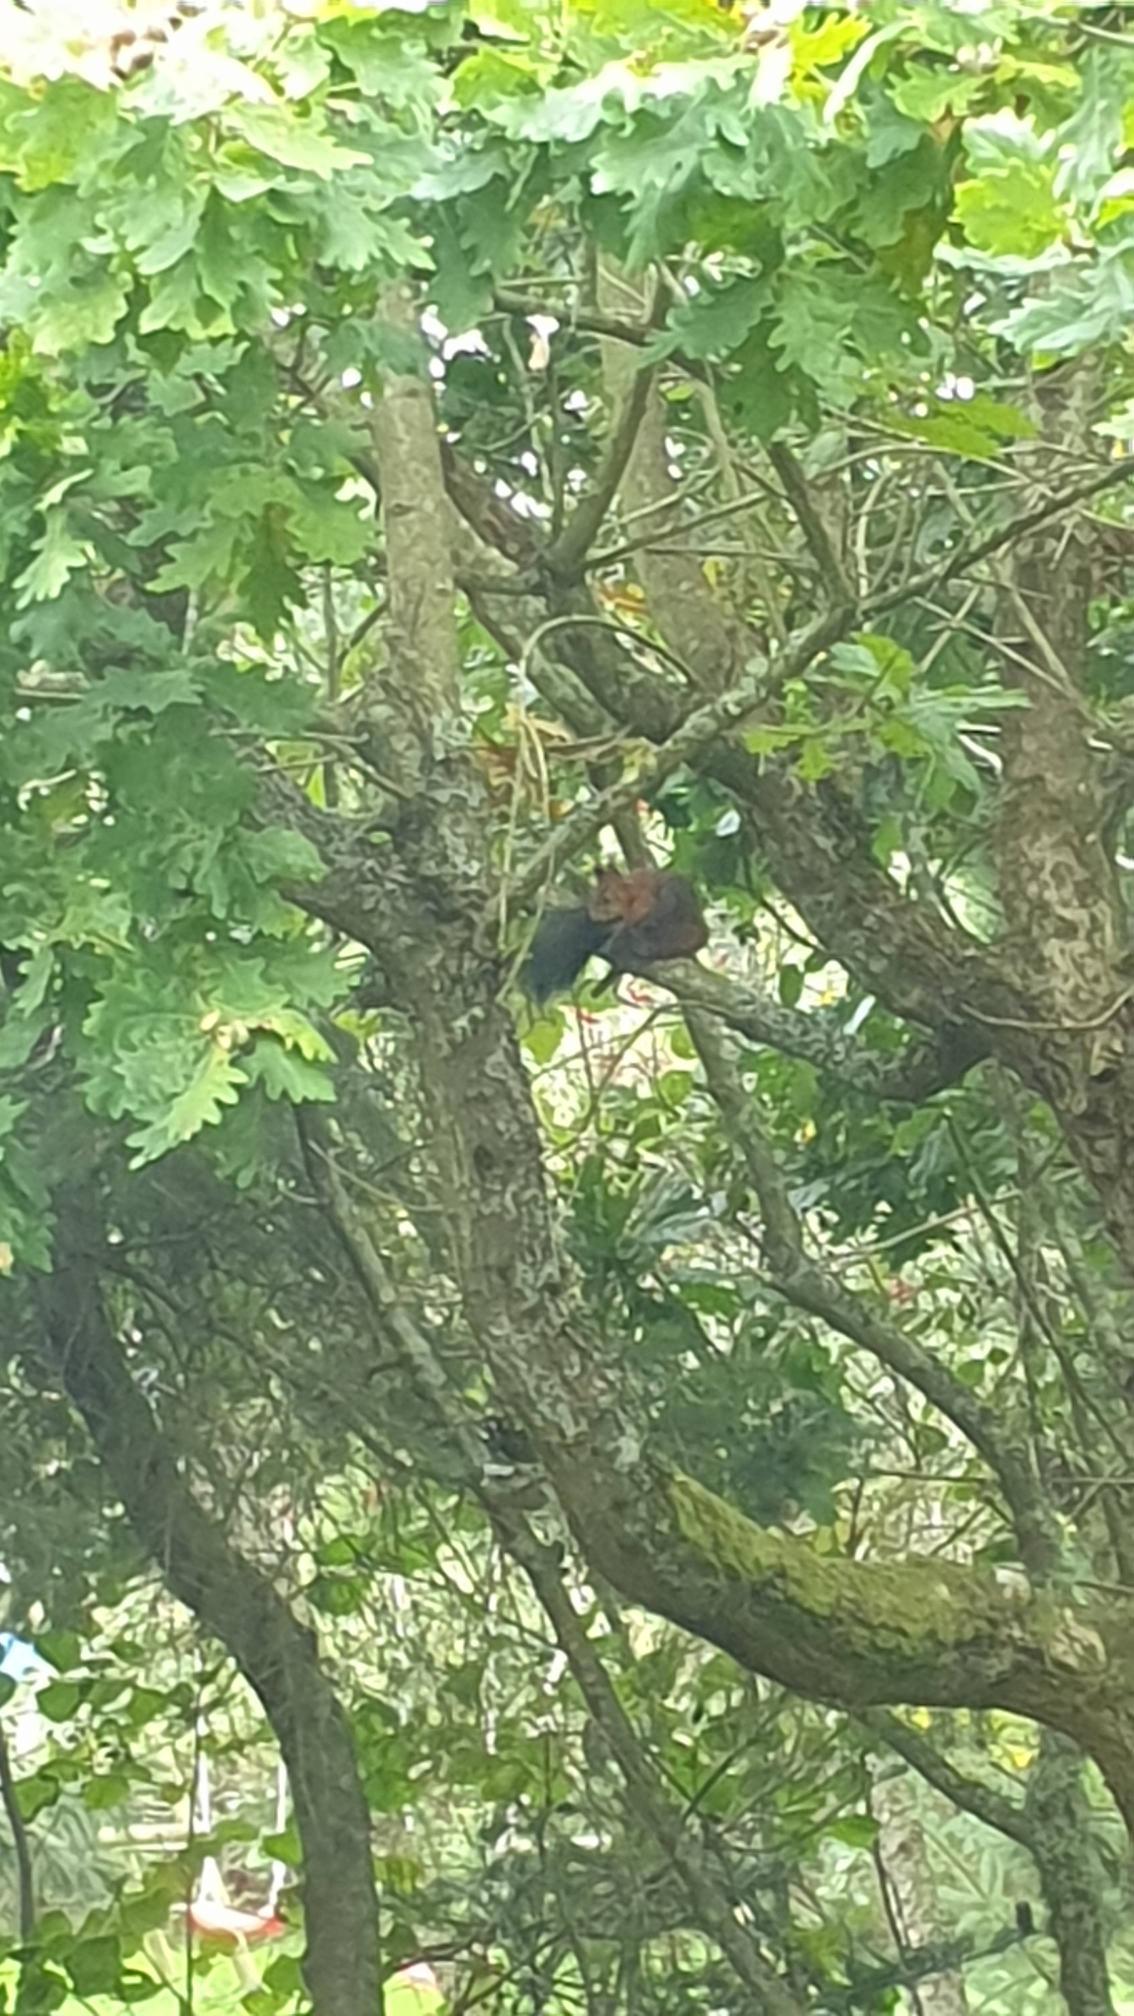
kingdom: Animalia
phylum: Chordata
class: Mammalia
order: Rodentia
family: Sciuridae
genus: Sciurus
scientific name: Sciurus vulgaris
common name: Egern
